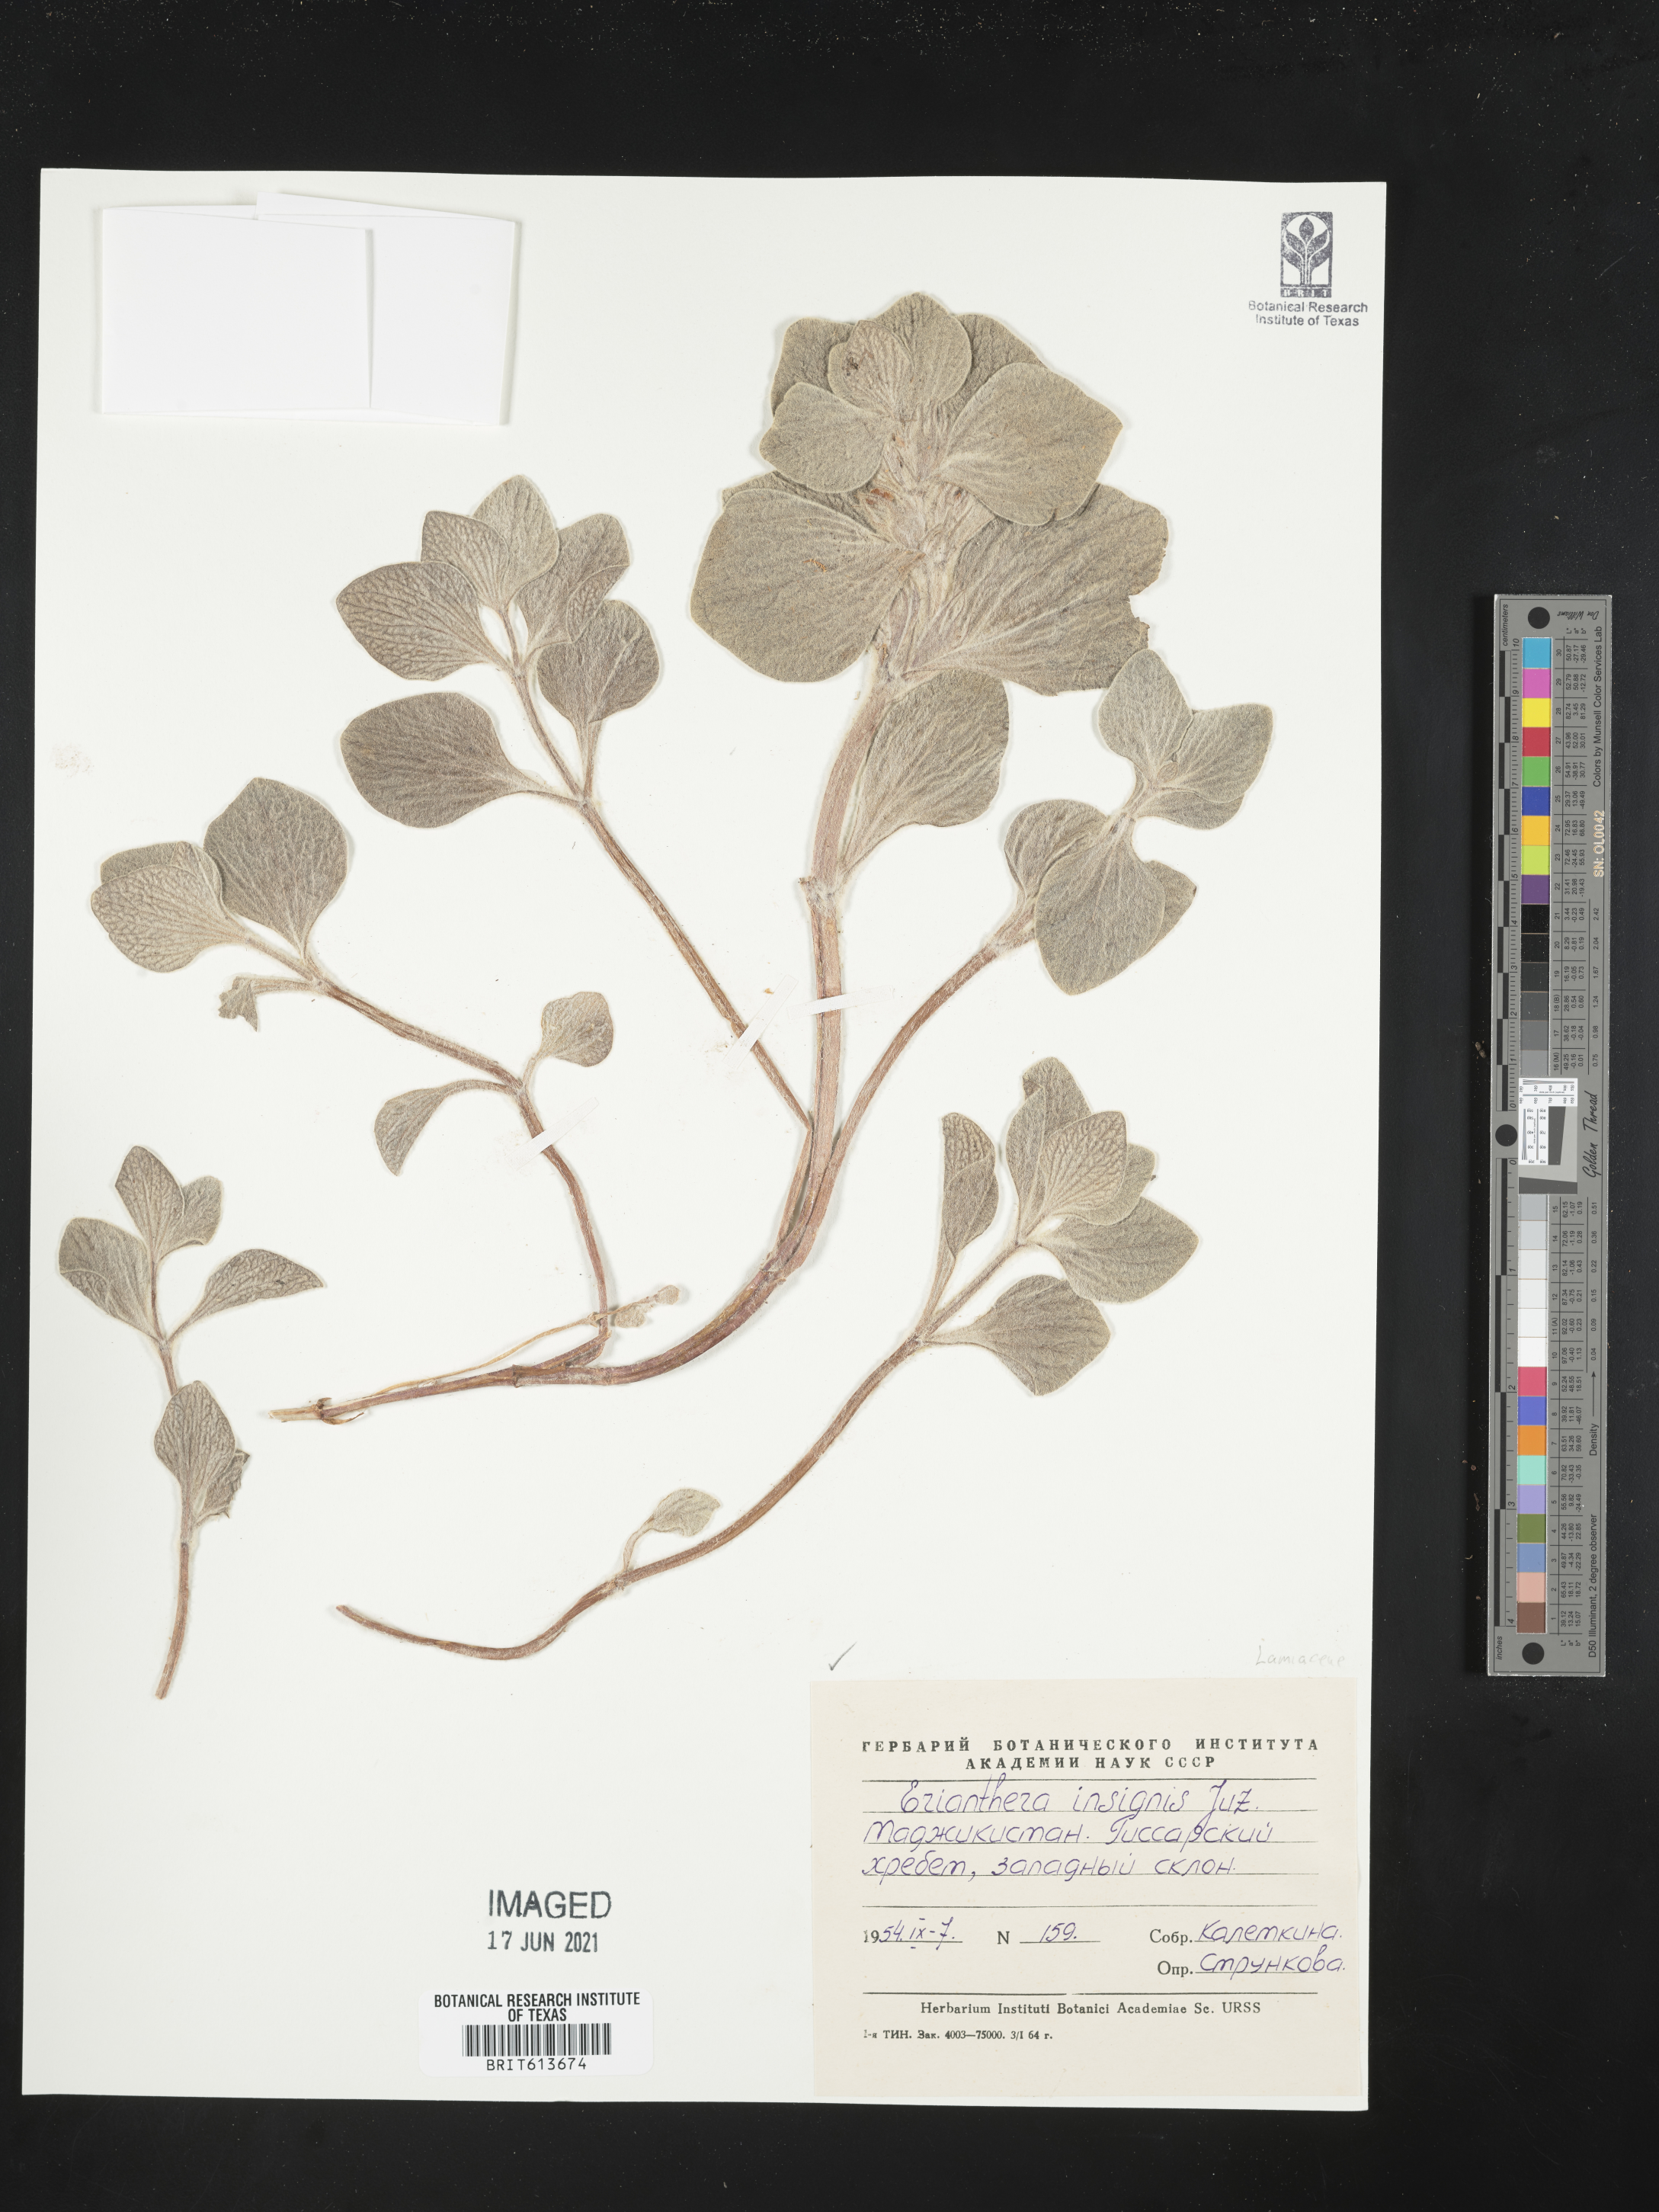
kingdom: Plantae
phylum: Tracheophyta
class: Magnoliopsida
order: Lamiales
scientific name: Lamiales
